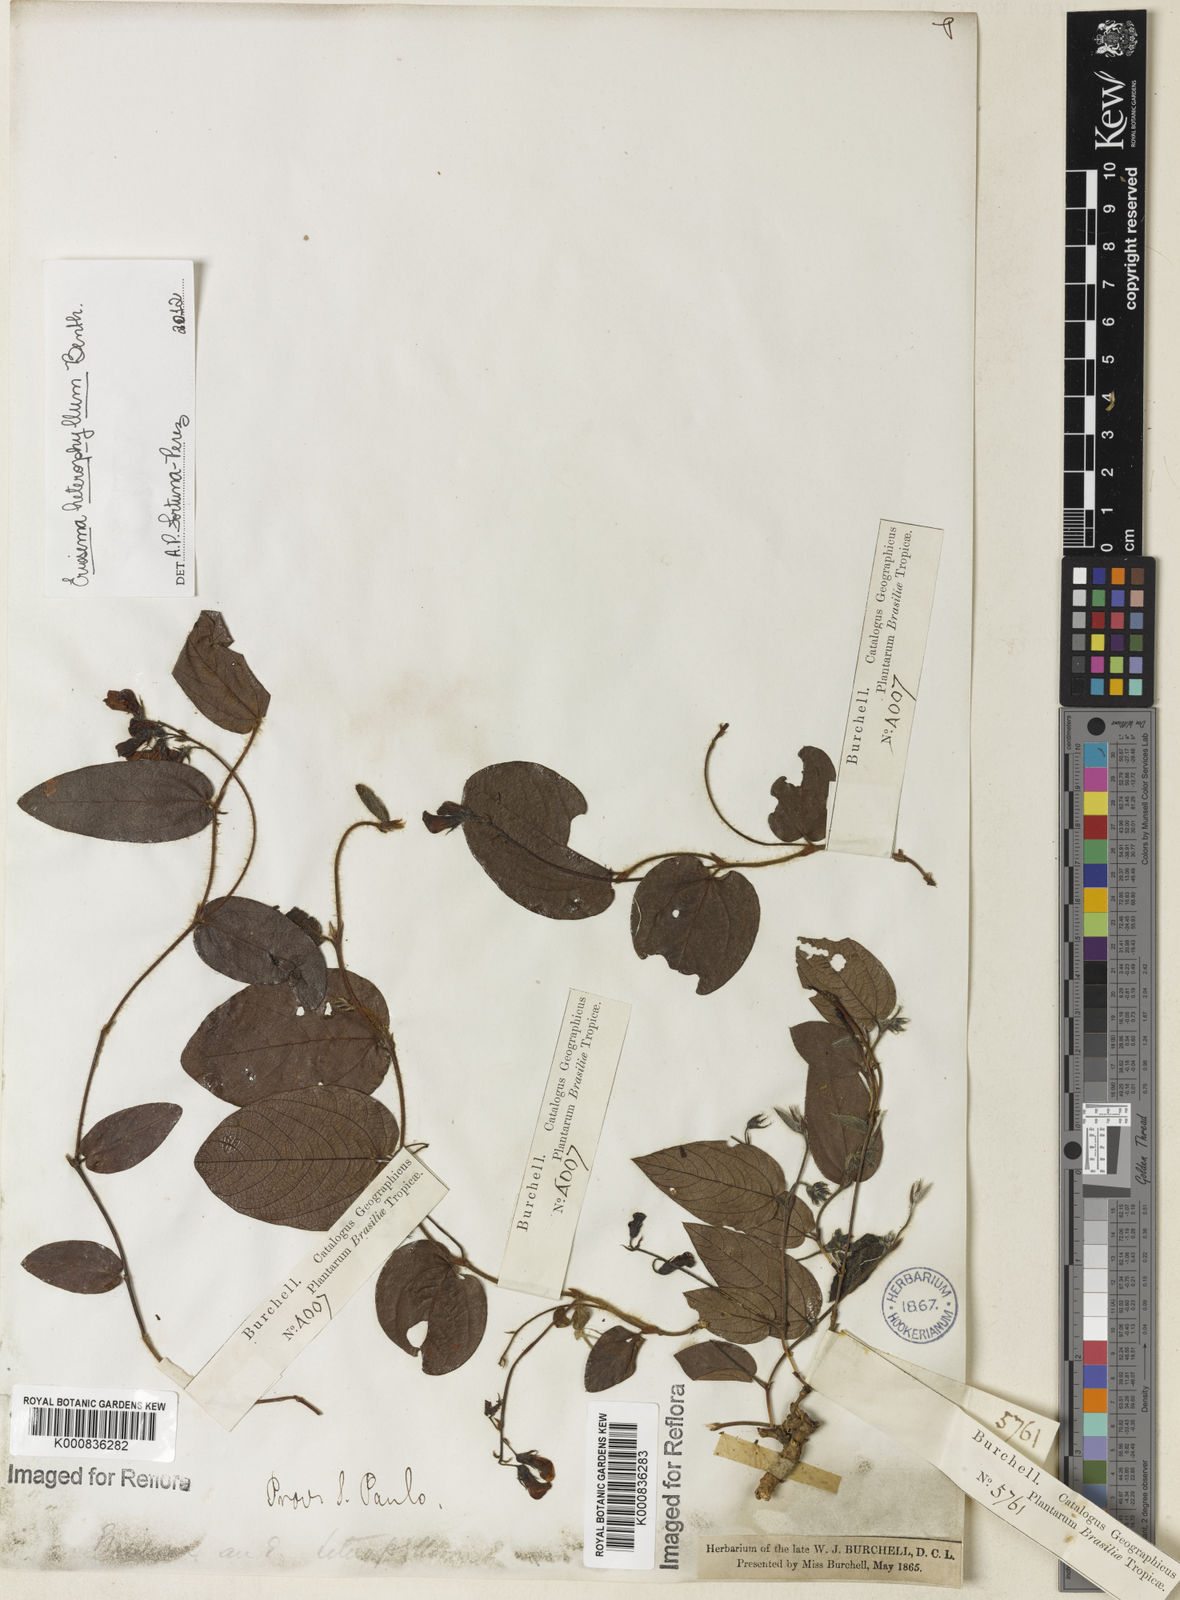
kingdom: Plantae
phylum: Tracheophyta
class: Magnoliopsida
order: Fabales
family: Fabaceae
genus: Eriosema
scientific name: Eriosema heterophyllum
